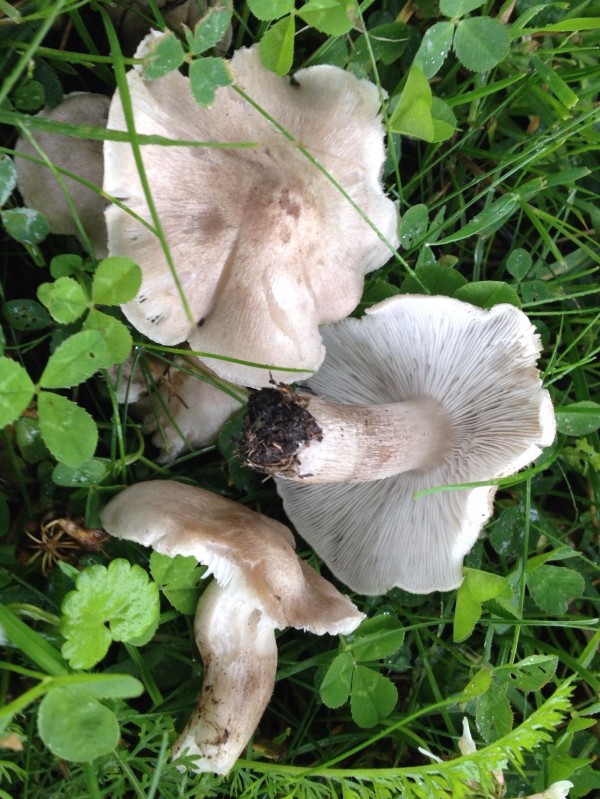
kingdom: Fungi
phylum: Basidiomycota
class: Agaricomycetes
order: Agaricales
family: Tricholomataceae
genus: Tricholoma
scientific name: Tricholoma argyraceum
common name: spids ridderhat
